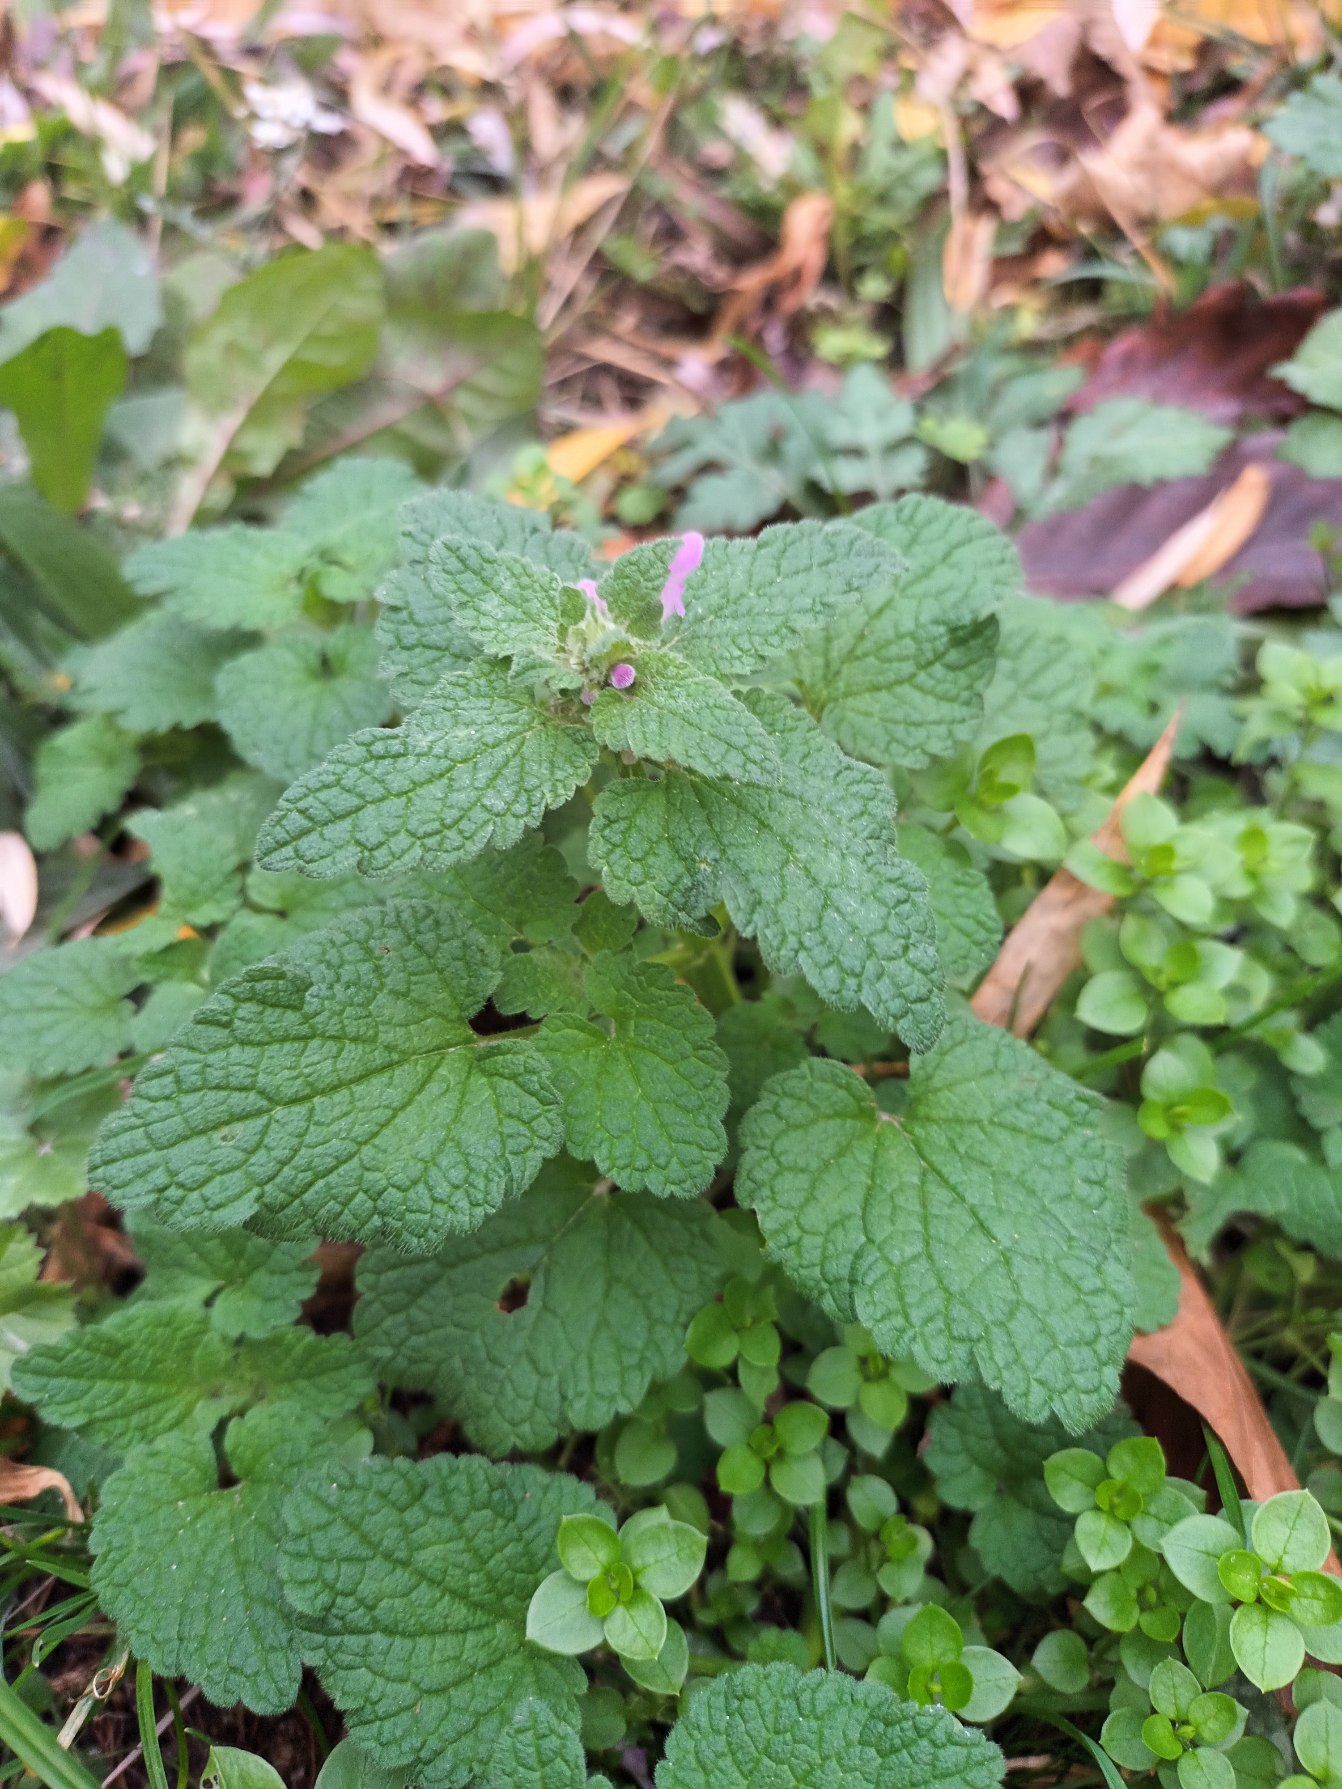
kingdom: Plantae
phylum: Tracheophyta
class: Magnoliopsida
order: Lamiales
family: Lamiaceae
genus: Lamium
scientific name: Lamium purpureum
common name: Rød tvetand
